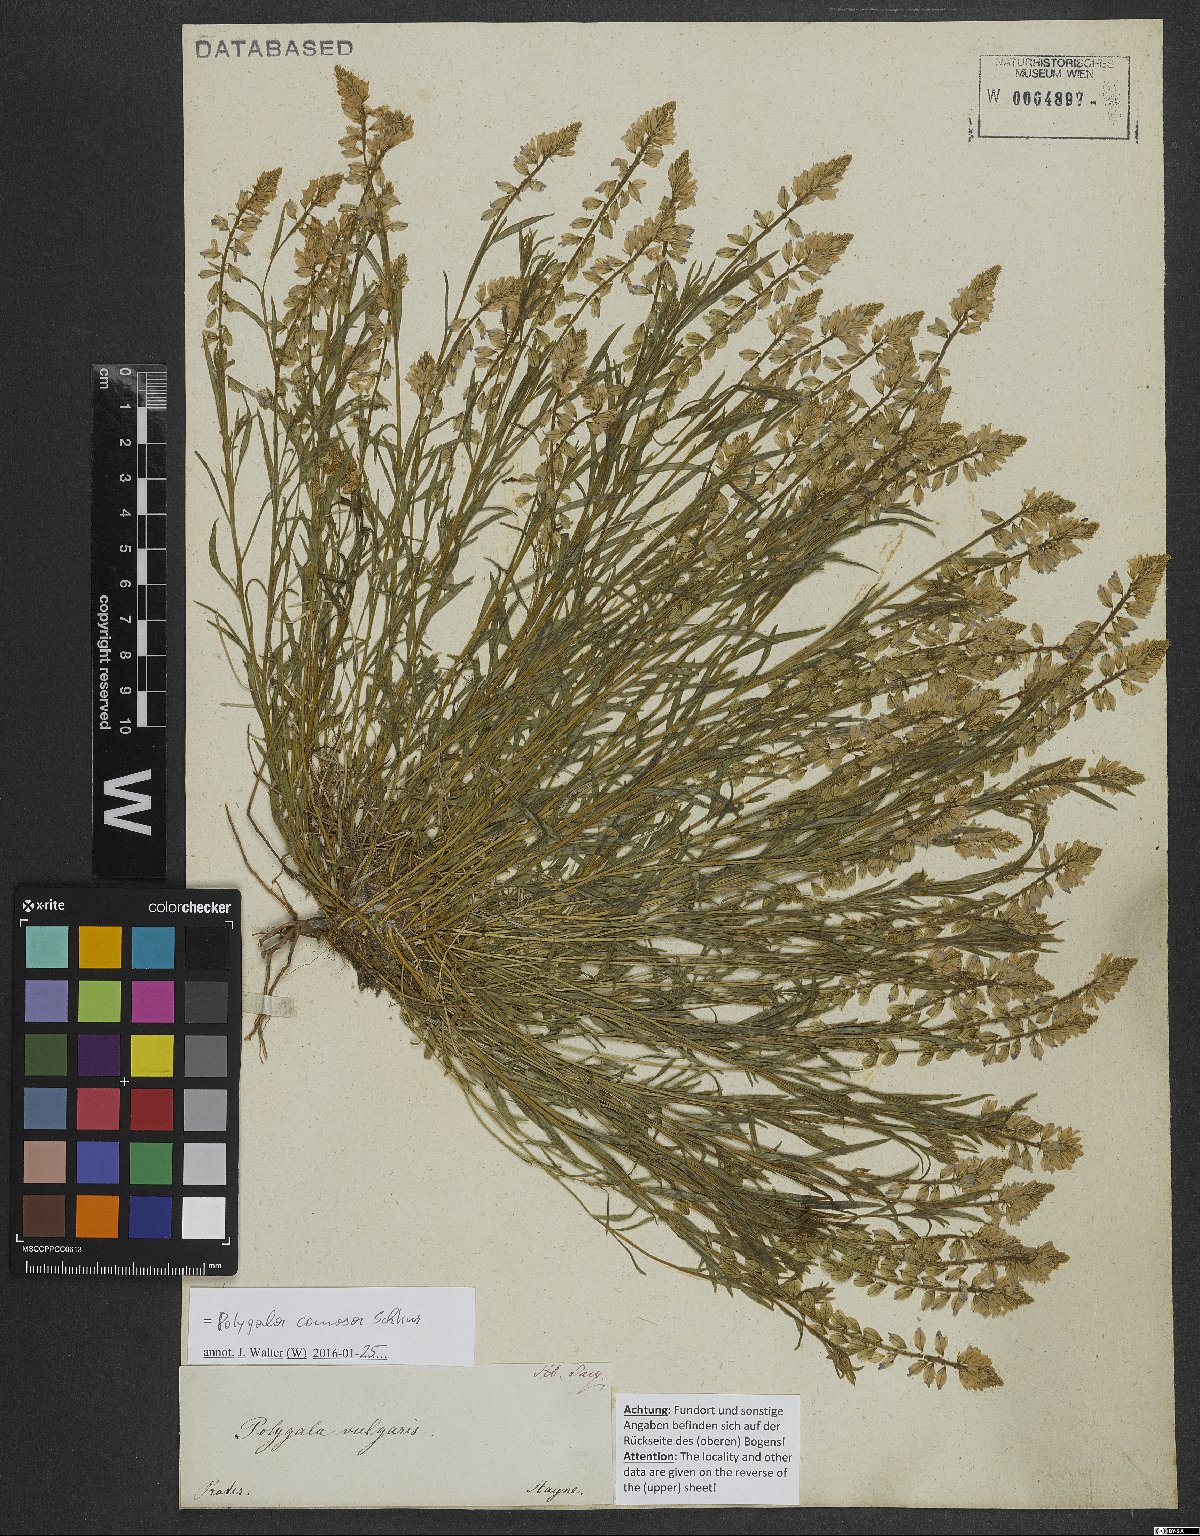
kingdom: Plantae
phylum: Tracheophyta
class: Magnoliopsida
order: Fabales
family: Polygalaceae
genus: Polygala
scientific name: Polygala comosa
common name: Tufted milkwort
